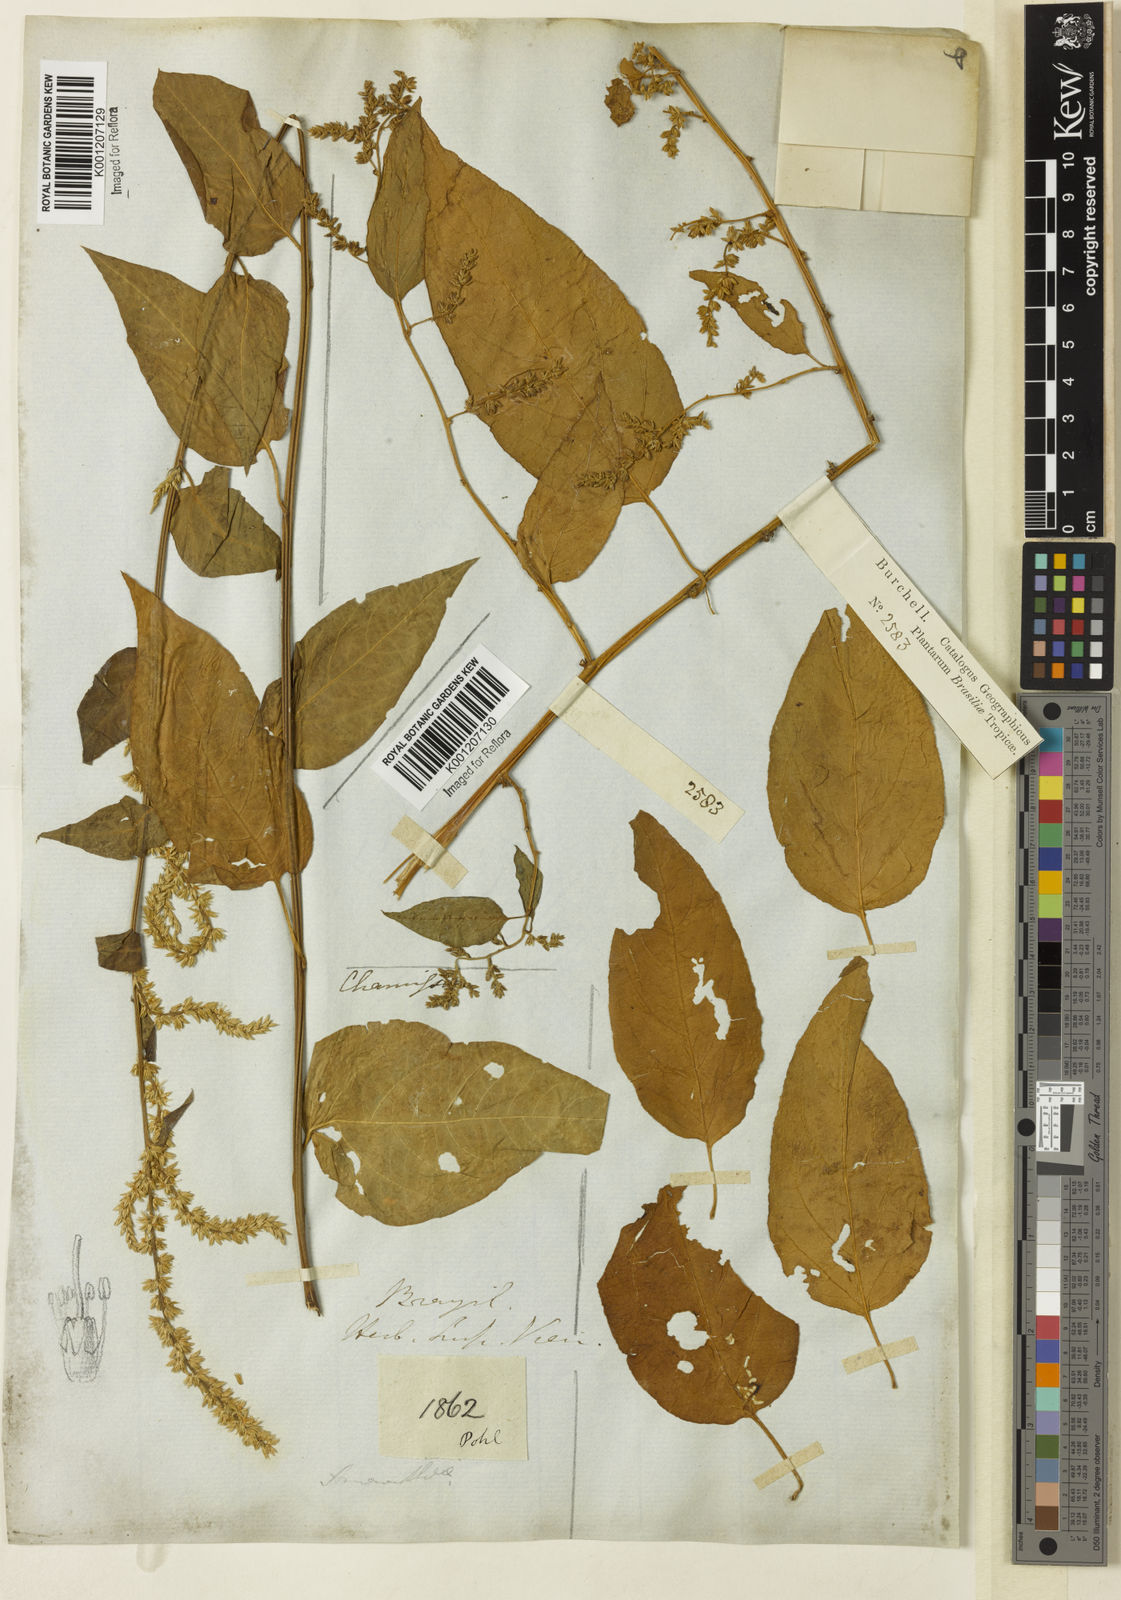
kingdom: Plantae
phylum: Tracheophyta
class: Magnoliopsida
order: Caryophyllales
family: Amaranthaceae
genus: Chamissoa
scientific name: Chamissoa altissima
